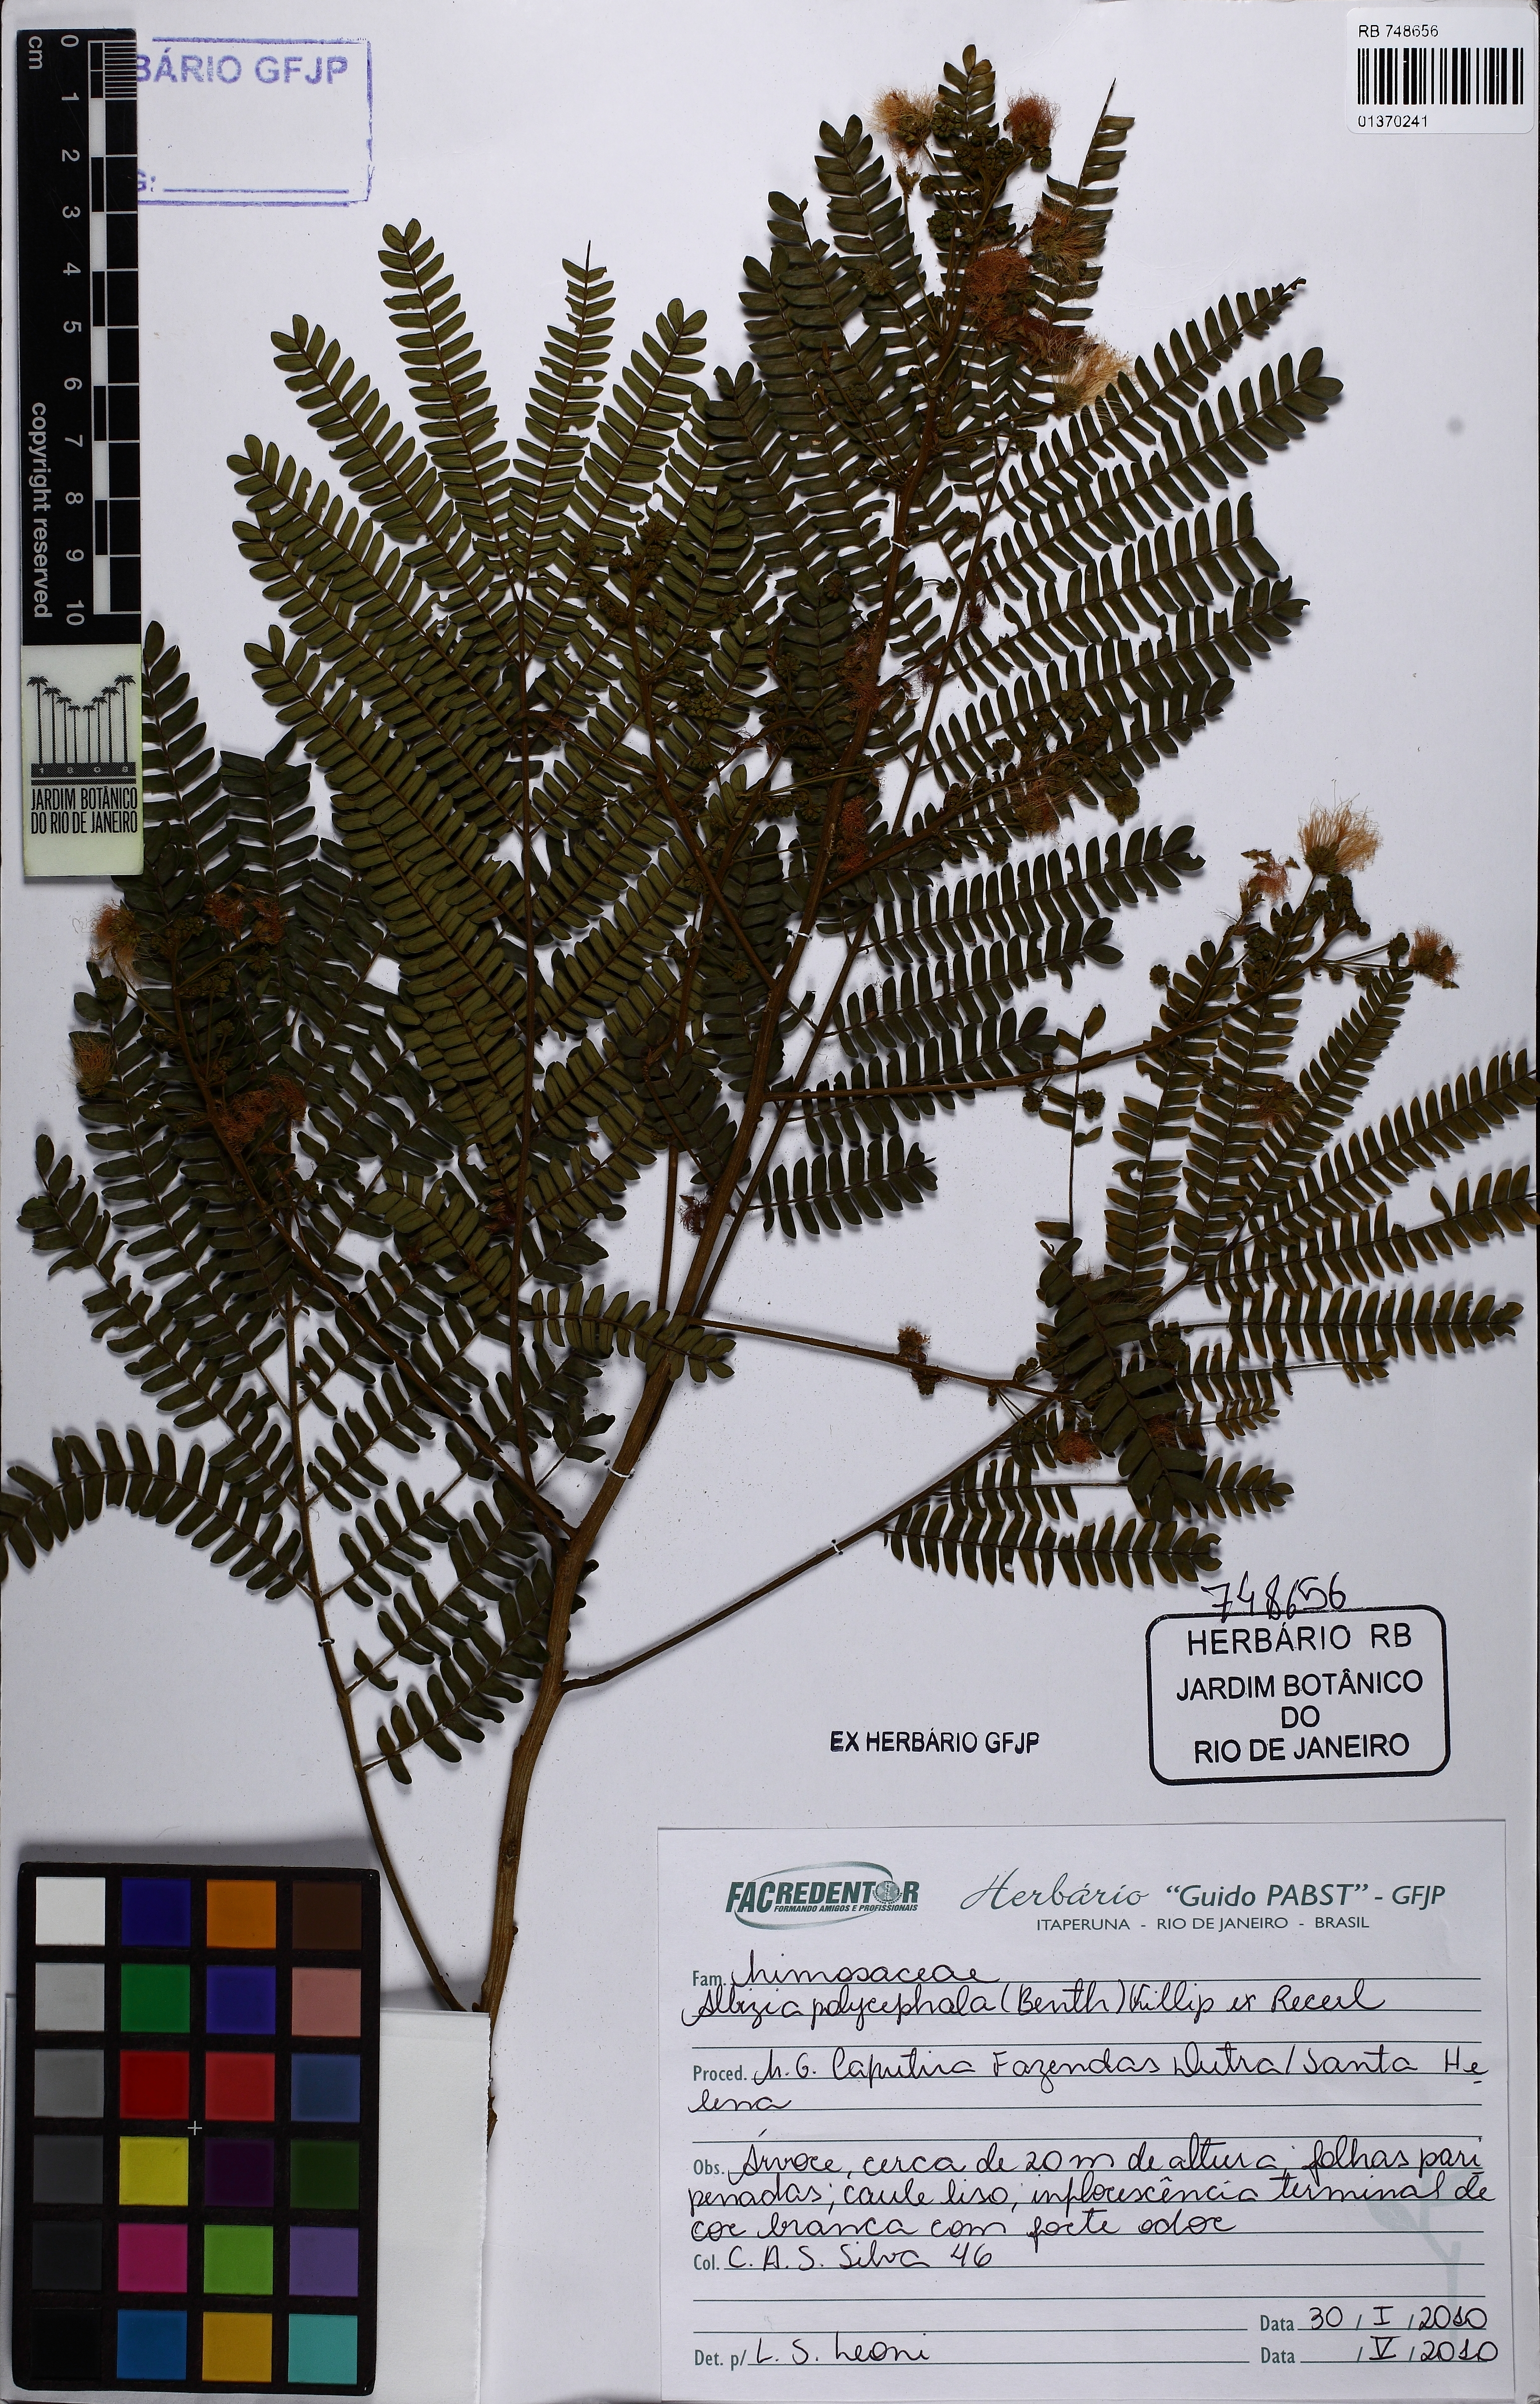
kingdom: Plantae
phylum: Tracheophyta
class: Magnoliopsida
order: Fabales
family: Fabaceae
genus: Albizia
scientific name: Albizia polycephala
